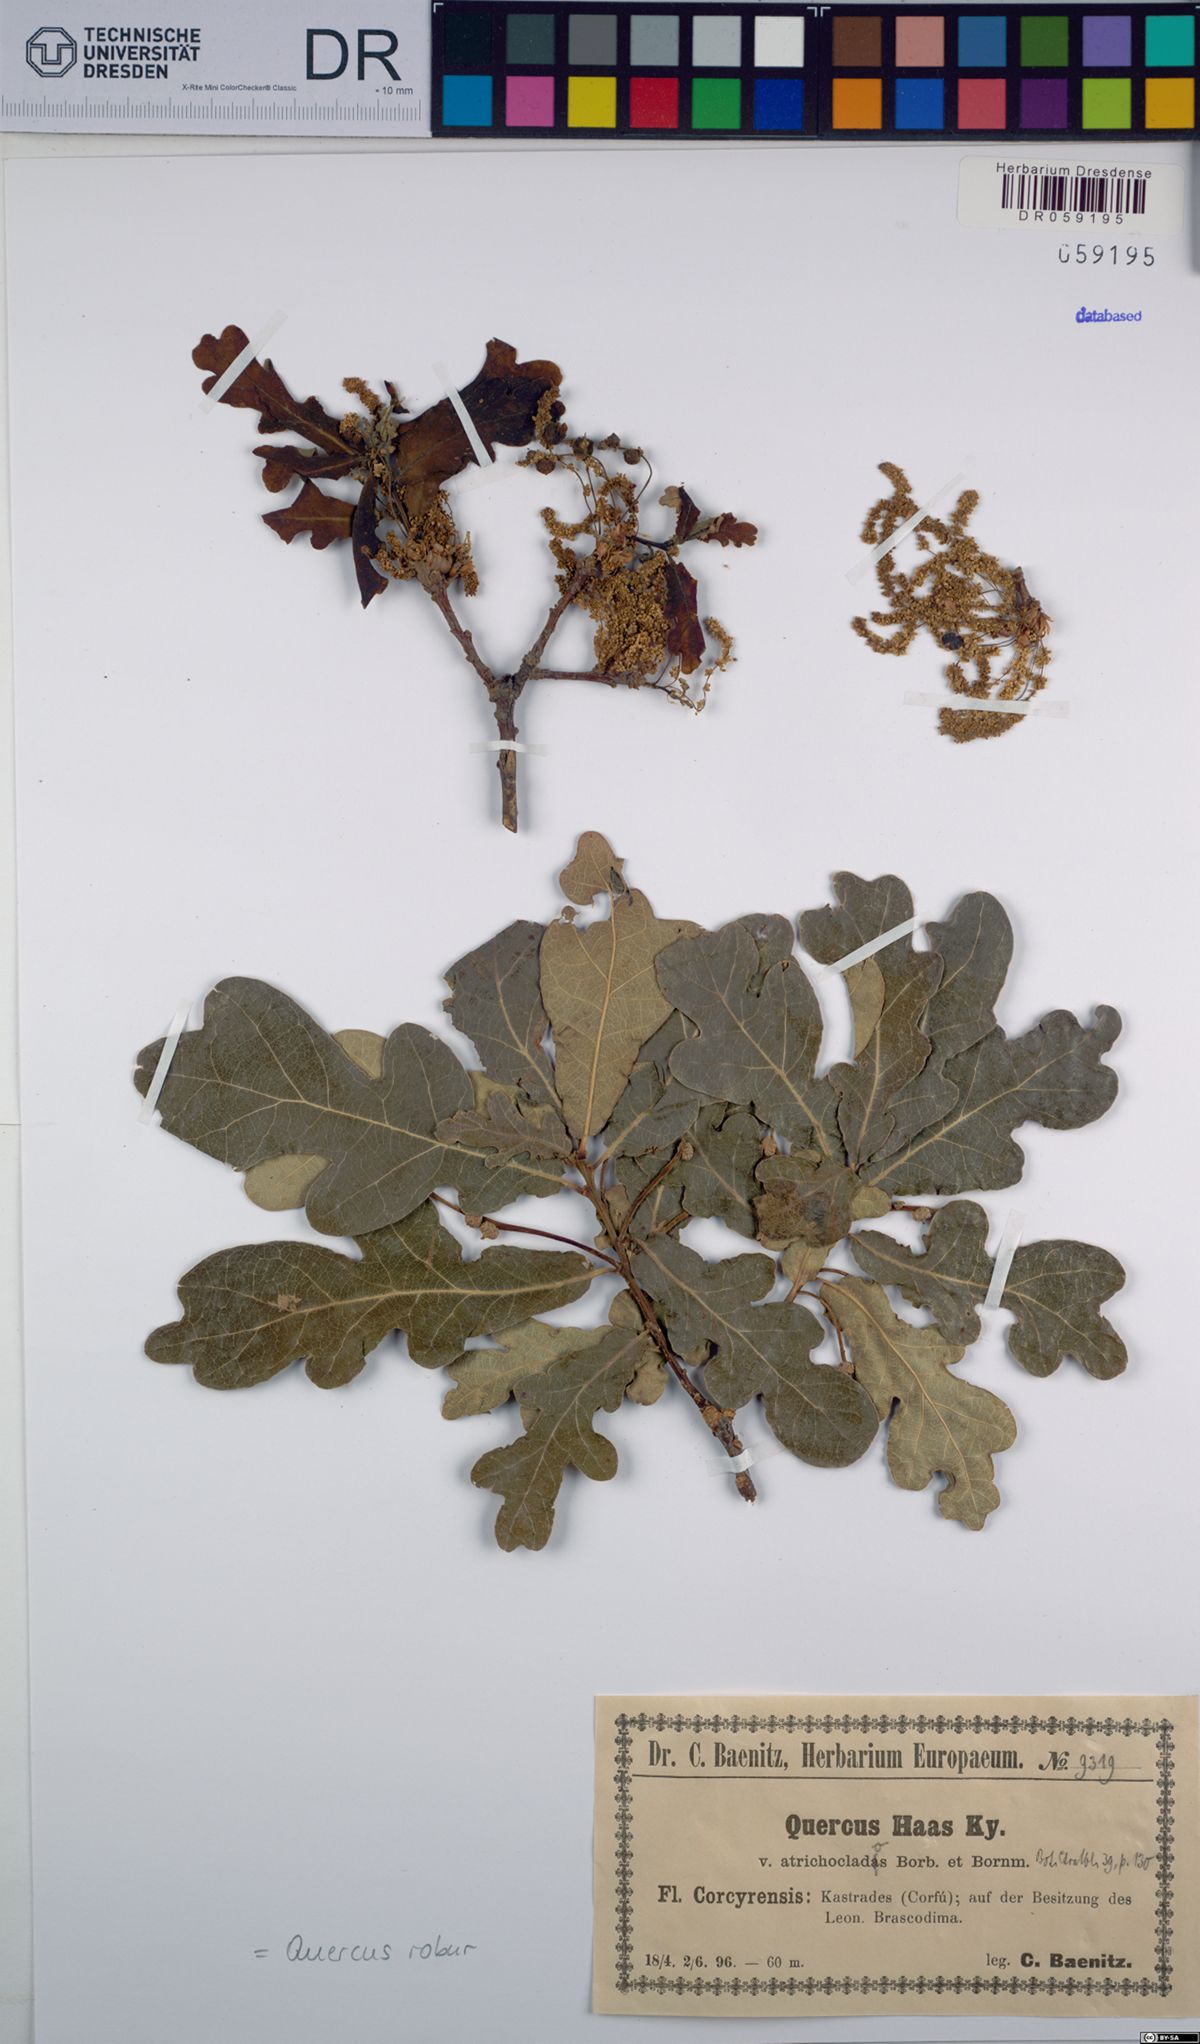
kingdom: Plantae
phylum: Tracheophyta
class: Magnoliopsida
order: Fagales
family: Fagaceae
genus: Quercus
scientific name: Quercus robur
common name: Pedunculate oak
